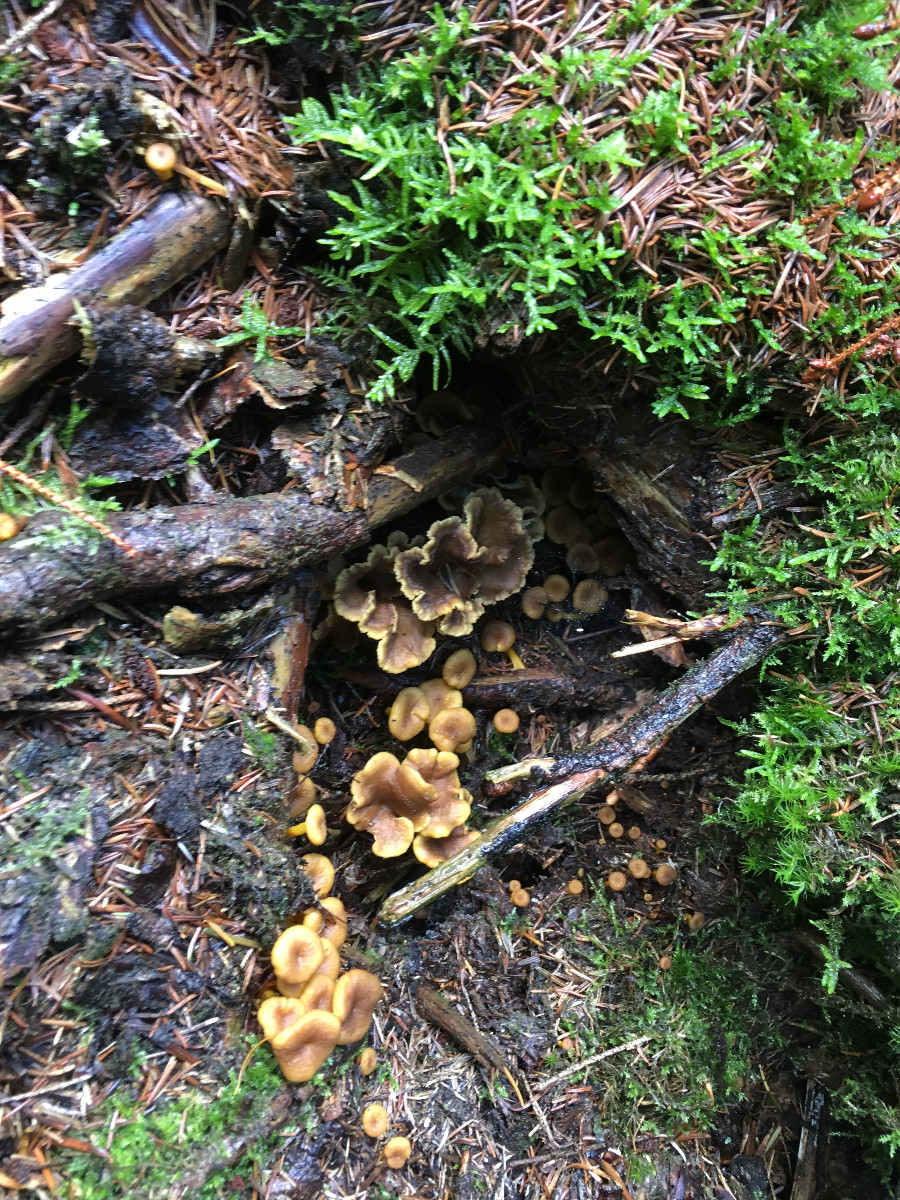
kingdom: Fungi
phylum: Basidiomycota
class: Agaricomycetes
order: Cantharellales
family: Hydnaceae
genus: Craterellus
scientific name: Craterellus tubaeformis
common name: tragt-kantarel
